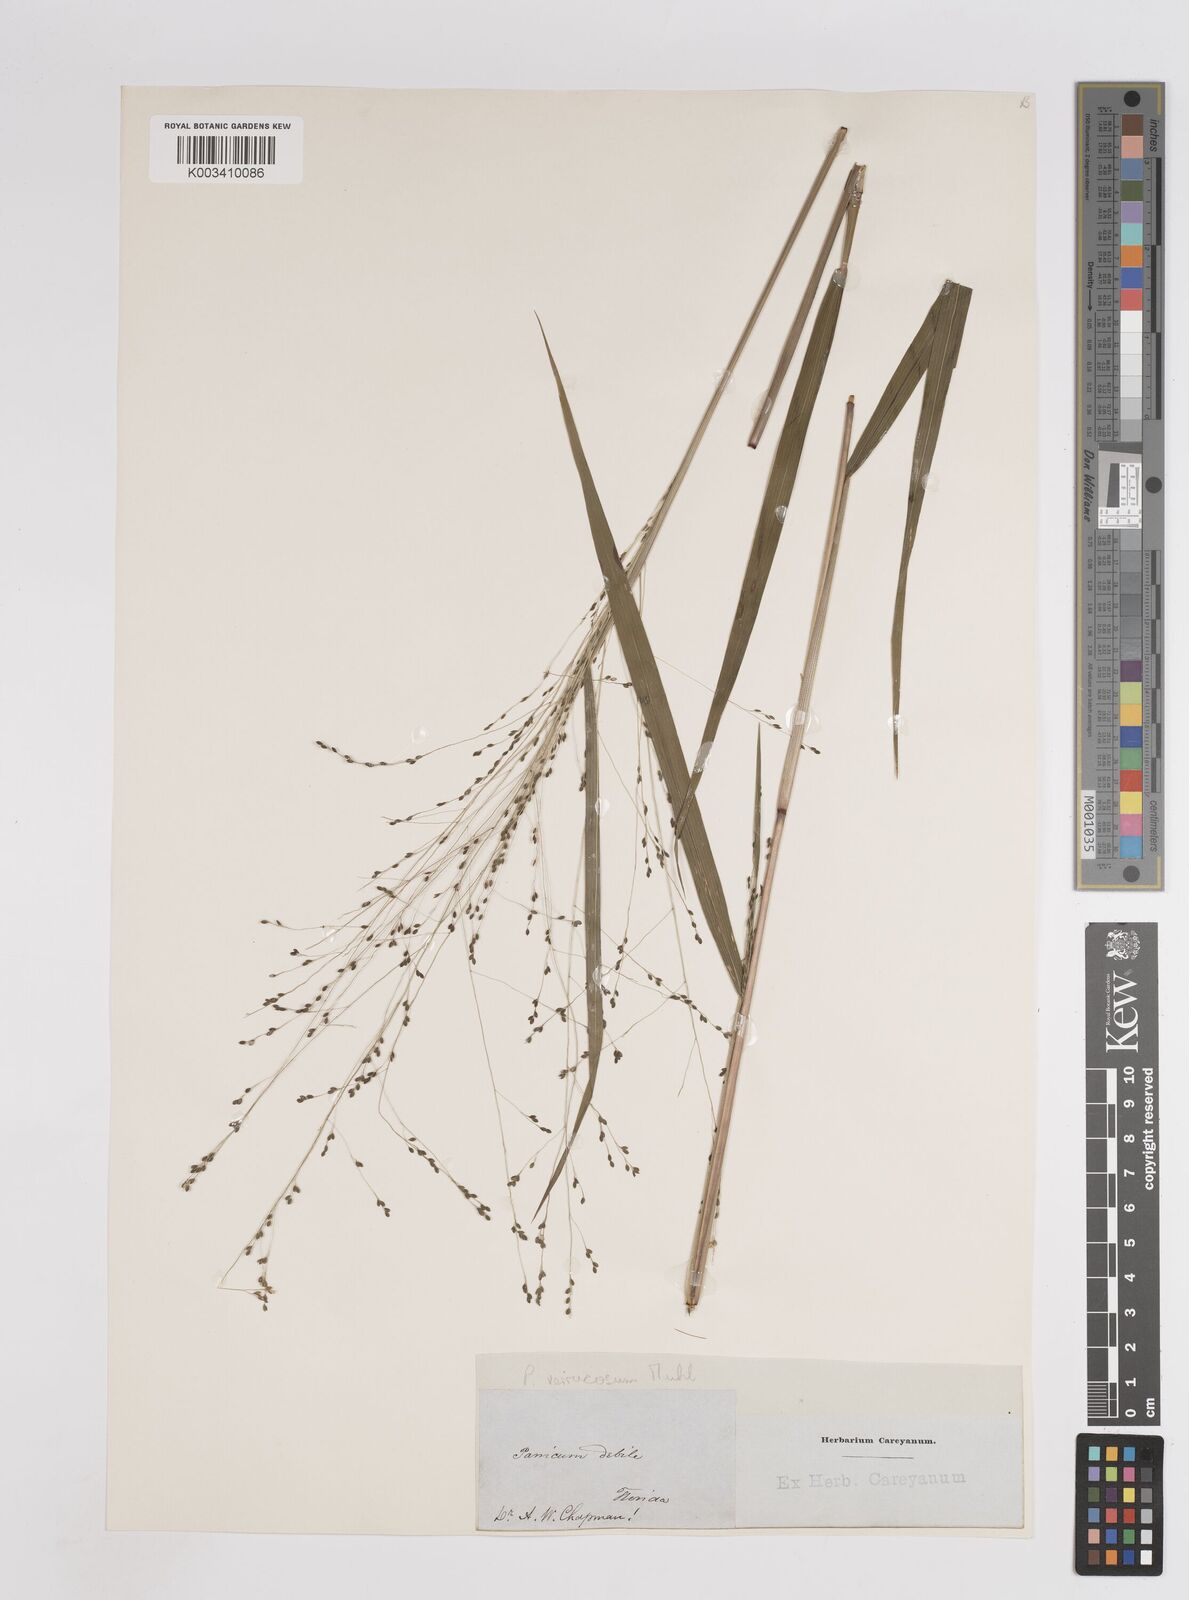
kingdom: Plantae
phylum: Tracheophyta
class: Liliopsida
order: Poales
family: Poaceae
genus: Kellochloa
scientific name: Kellochloa verrucosa
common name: Warty panic grass
